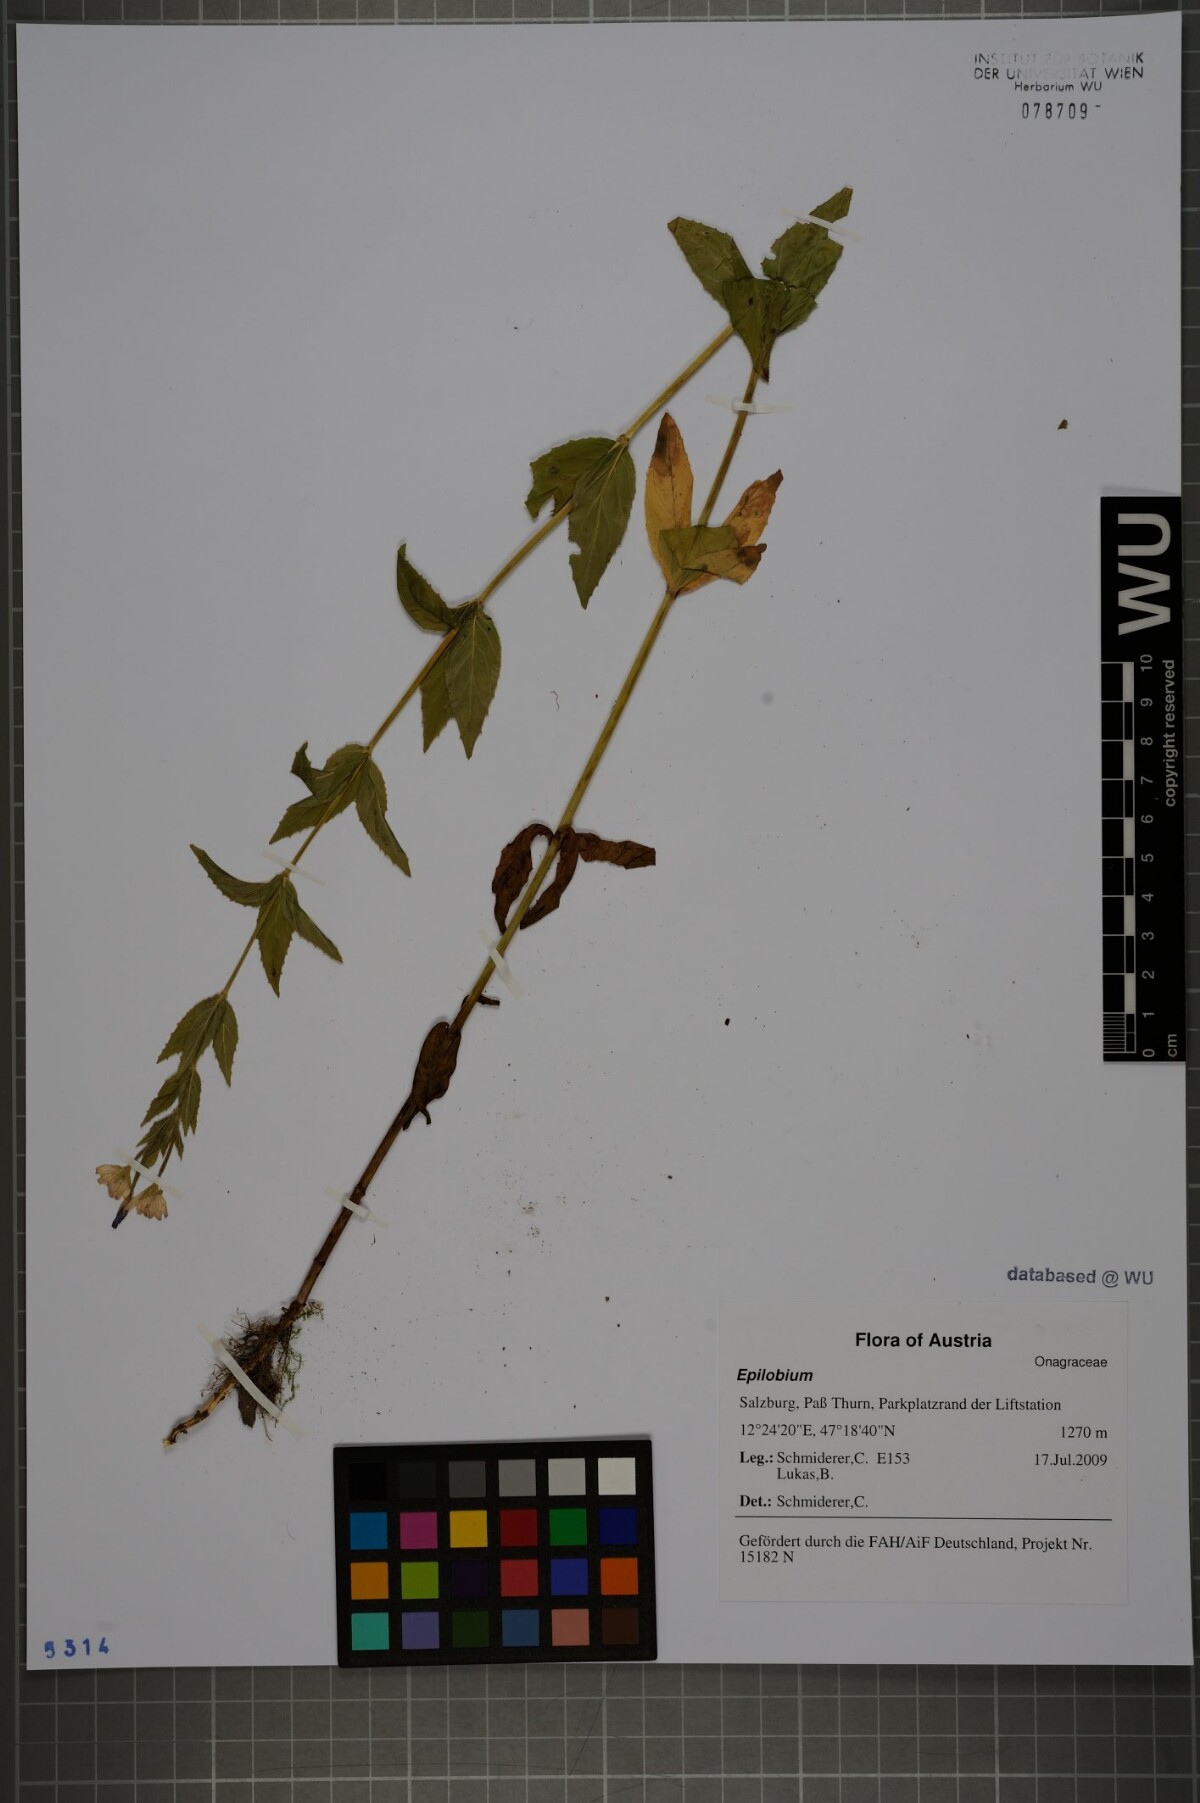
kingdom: Plantae
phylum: Tracheophyta
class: Magnoliopsida
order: Myrtales
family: Onagraceae
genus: Epilobium
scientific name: Epilobium alpestre
